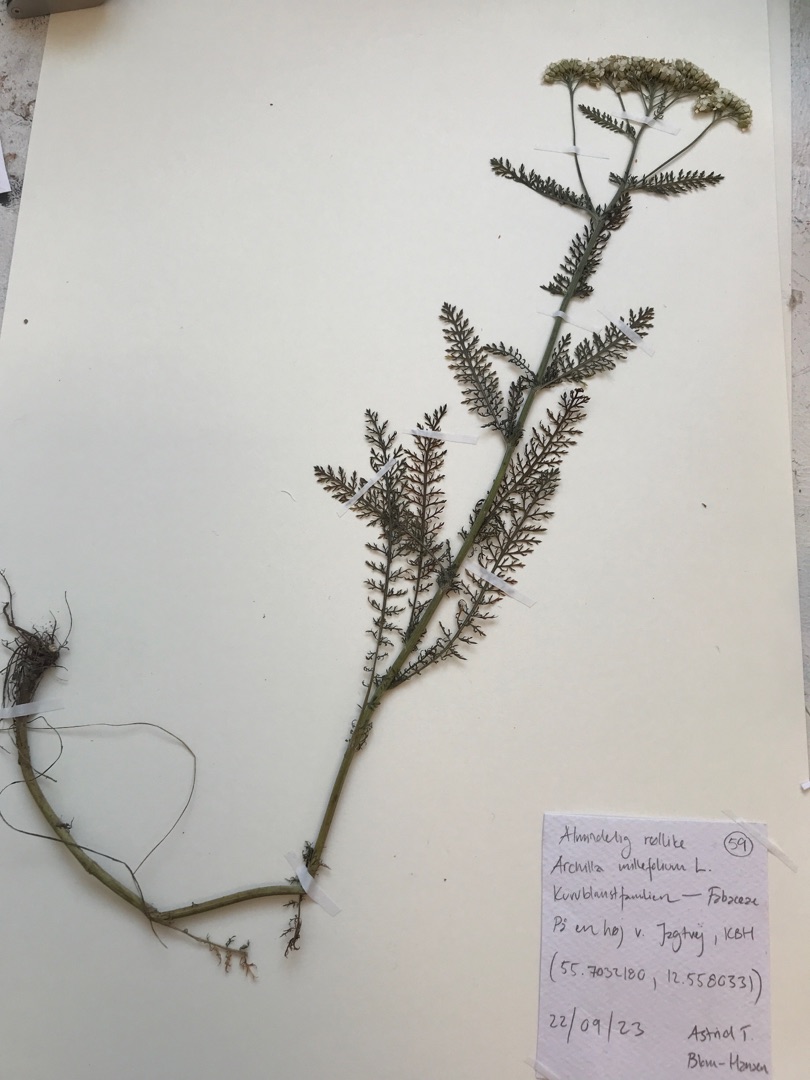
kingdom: Plantae
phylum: Tracheophyta
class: Magnoliopsida
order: Asterales
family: Asteraceae
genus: Achillea
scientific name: Achillea millefolium
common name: Almindelig røllike
